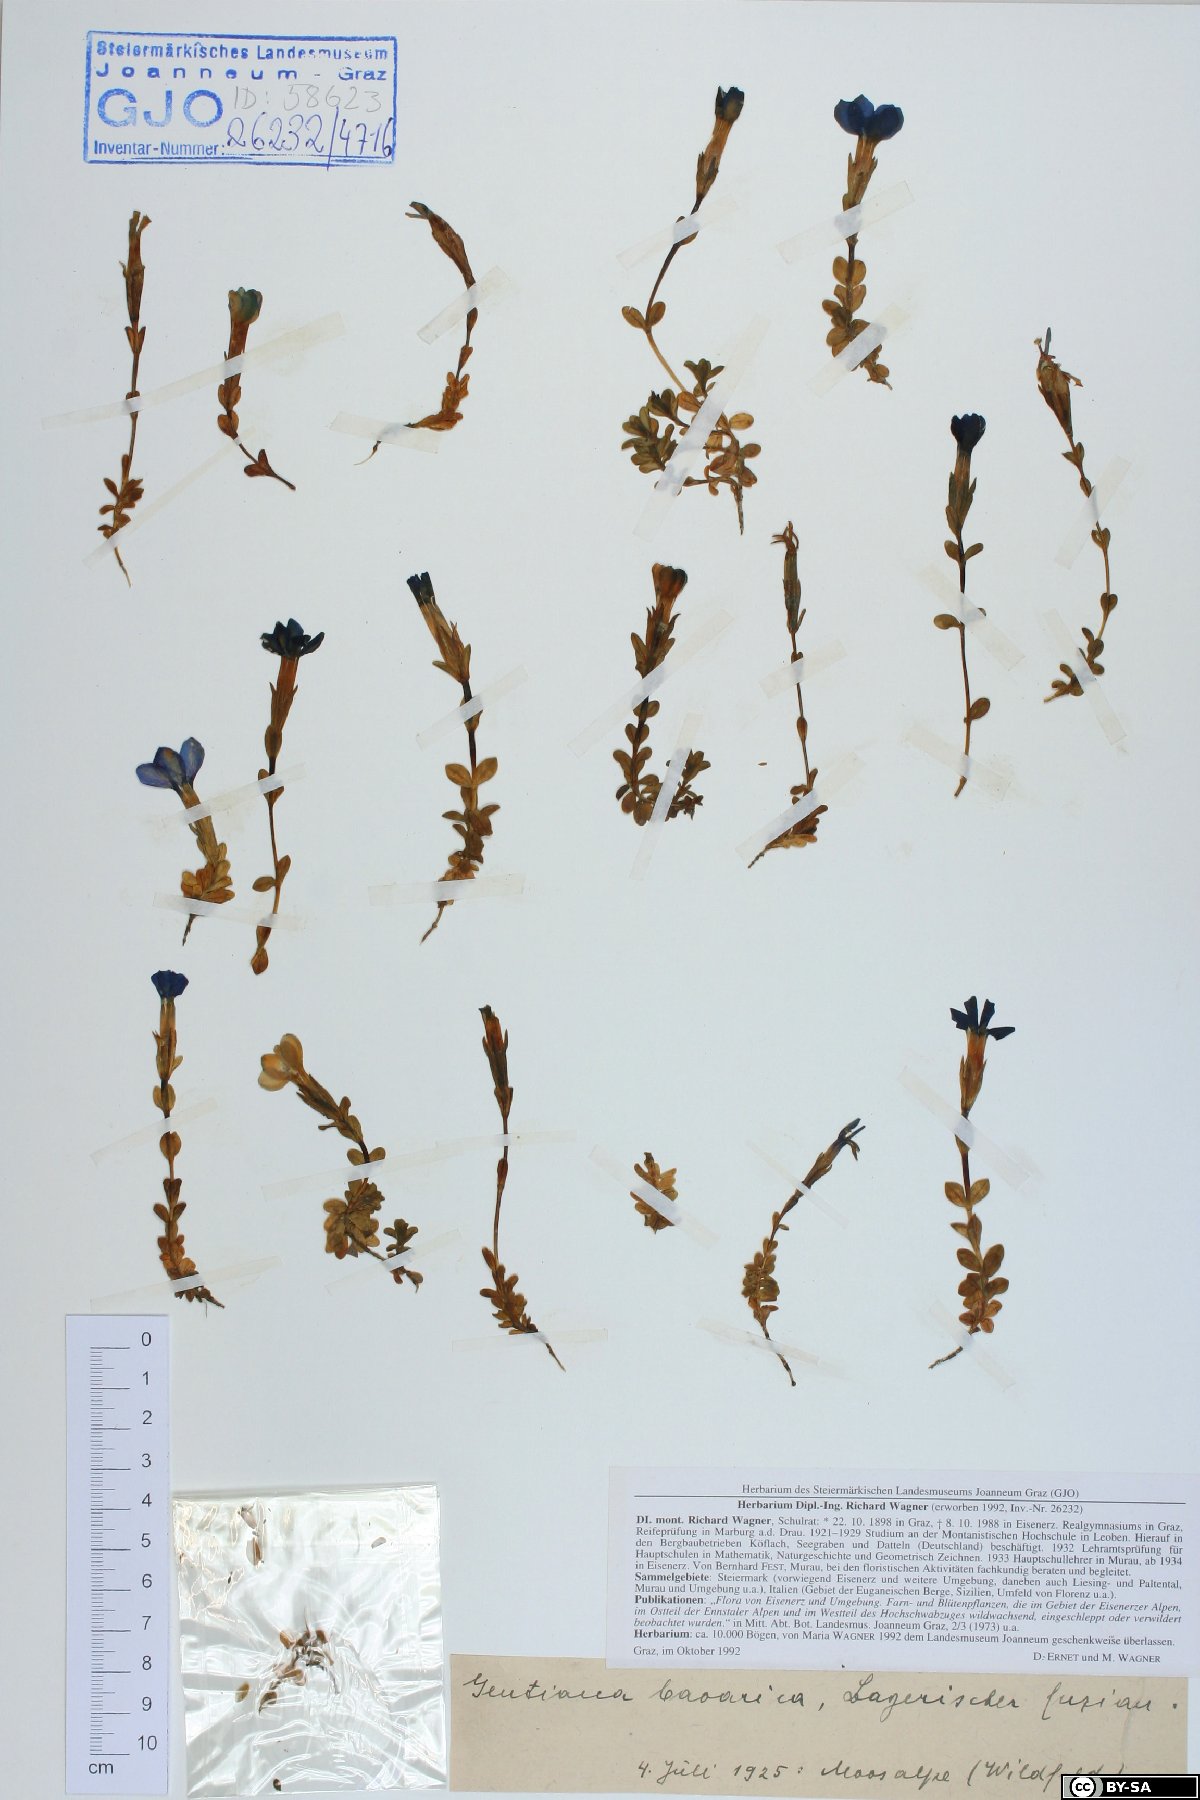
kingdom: Plantae
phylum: Tracheophyta
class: Magnoliopsida
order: Gentianales
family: Gentianaceae
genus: Gentiana
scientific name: Gentiana bavarica
